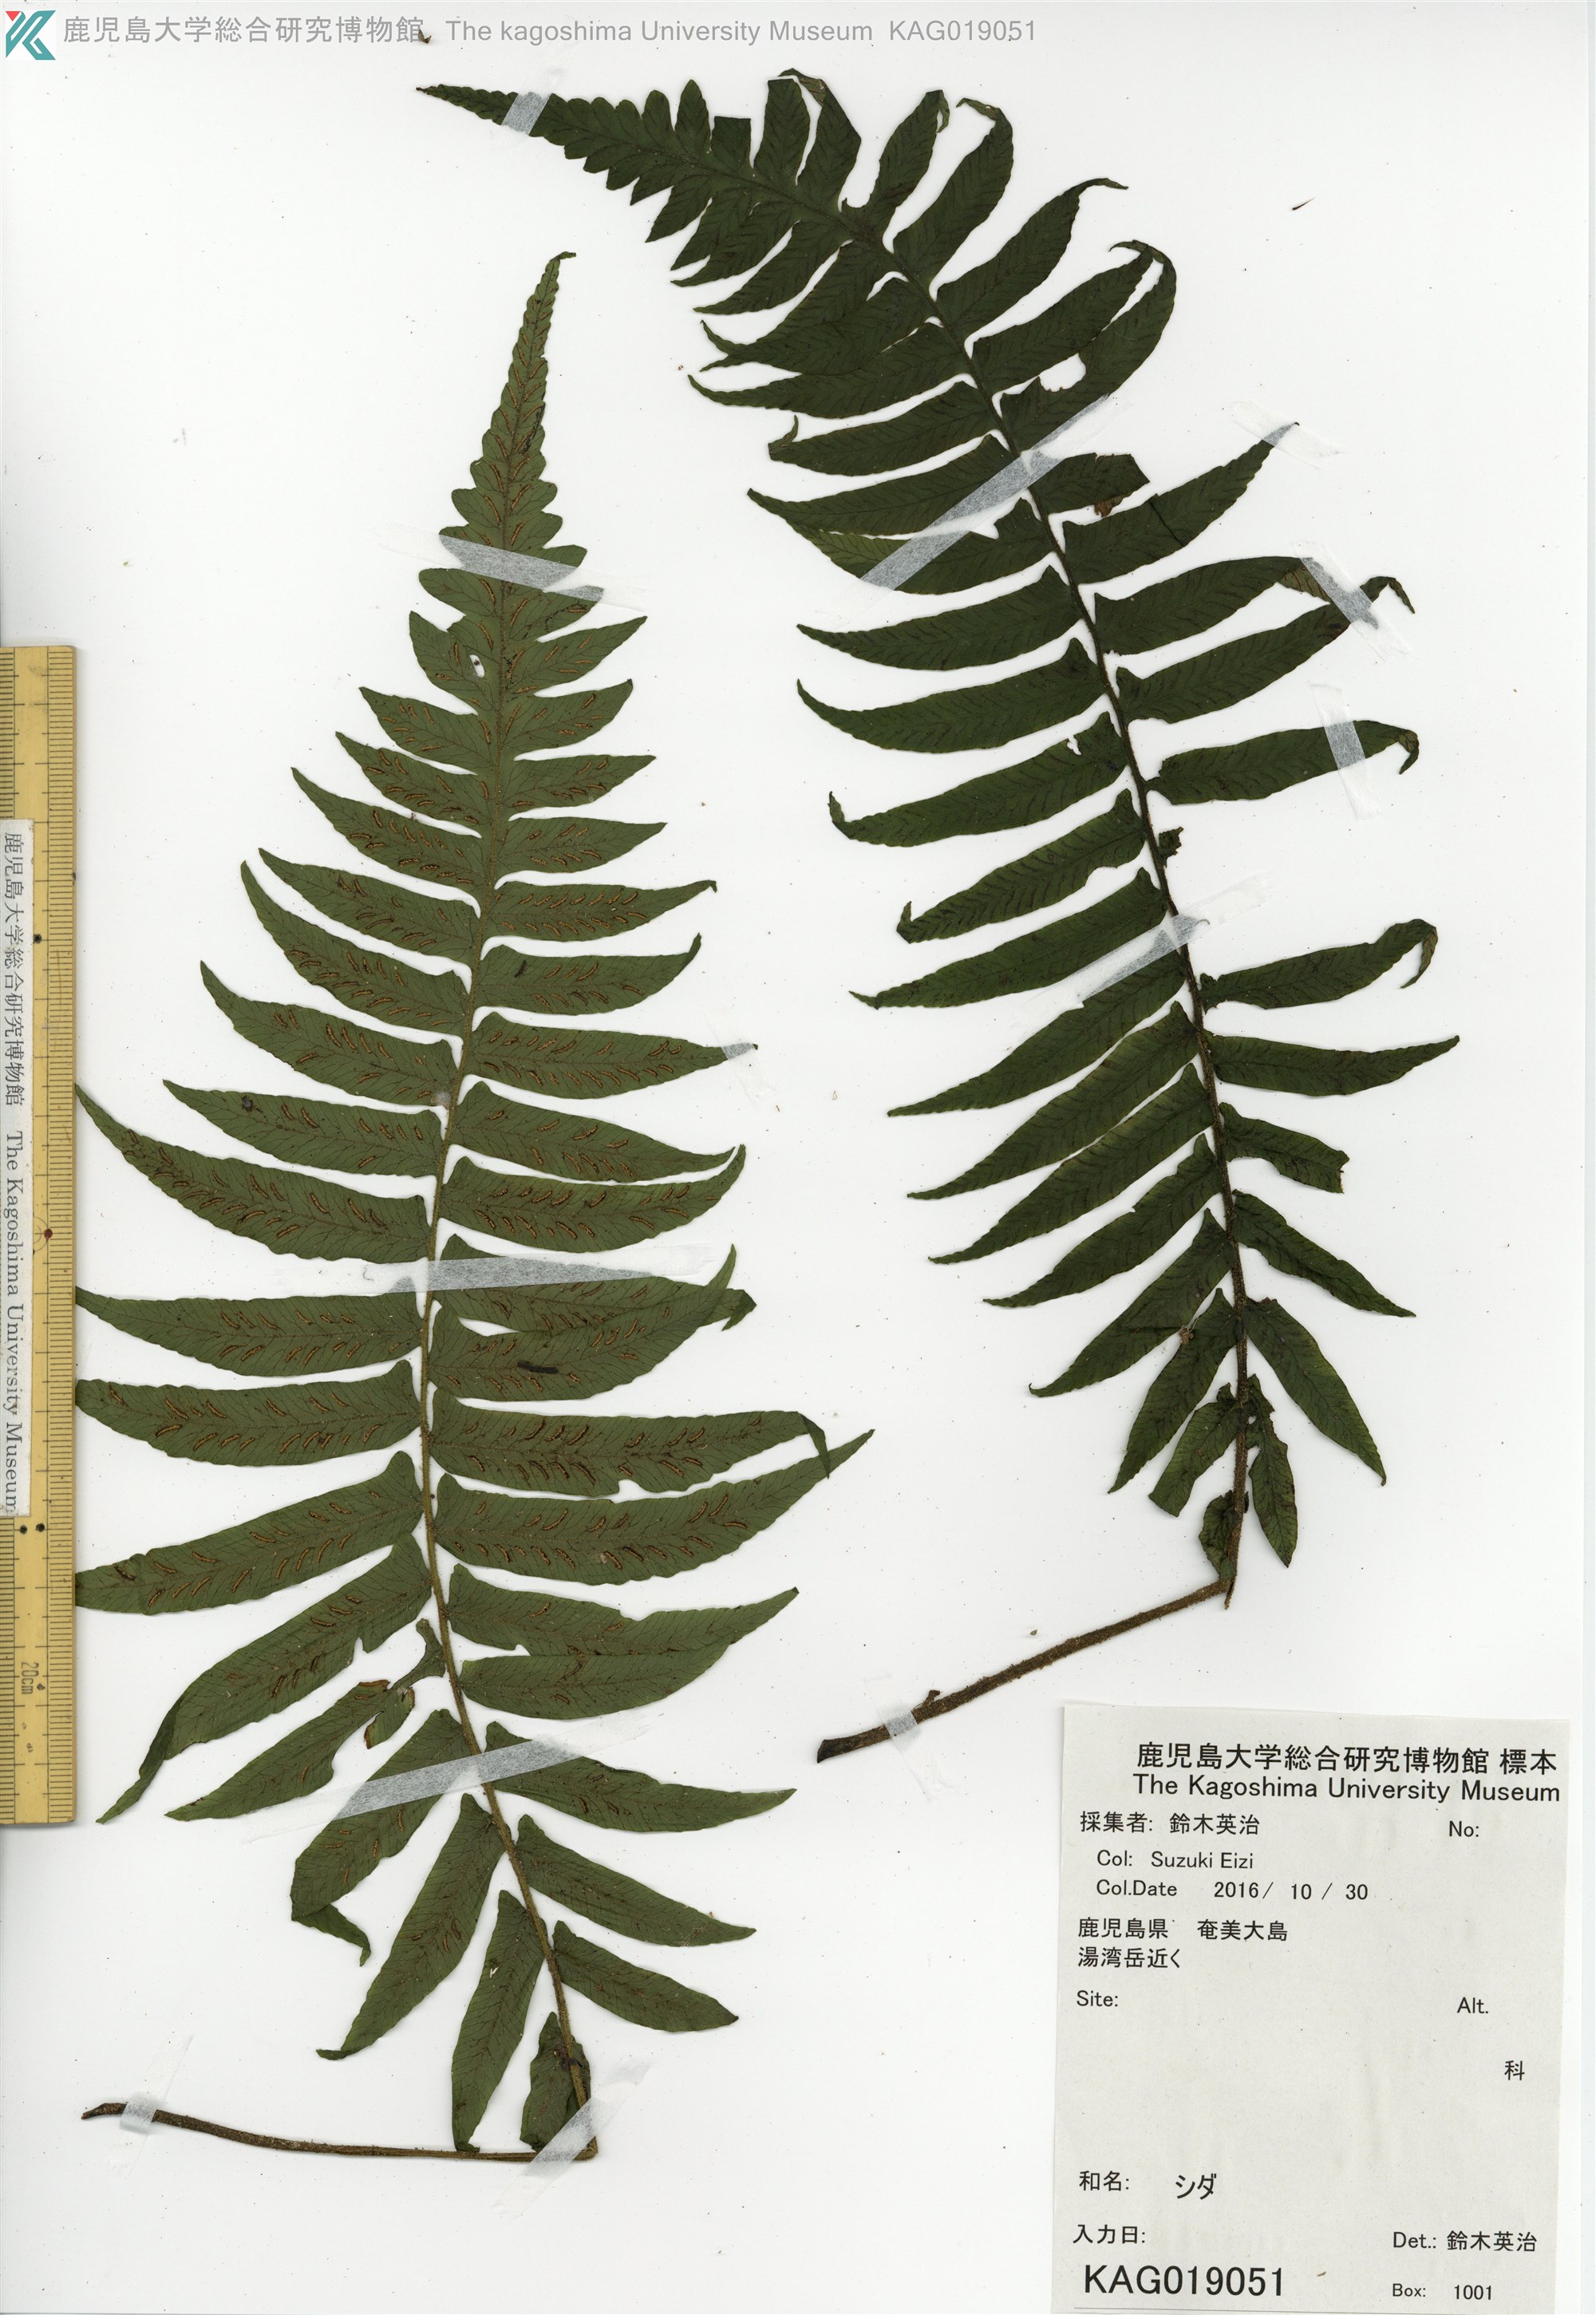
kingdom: Plantae
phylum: Tracheophyta
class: Polypodiopsida
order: Polypodiales
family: Athyriaceae
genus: Diplazium
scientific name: Diplazium pullingeri
